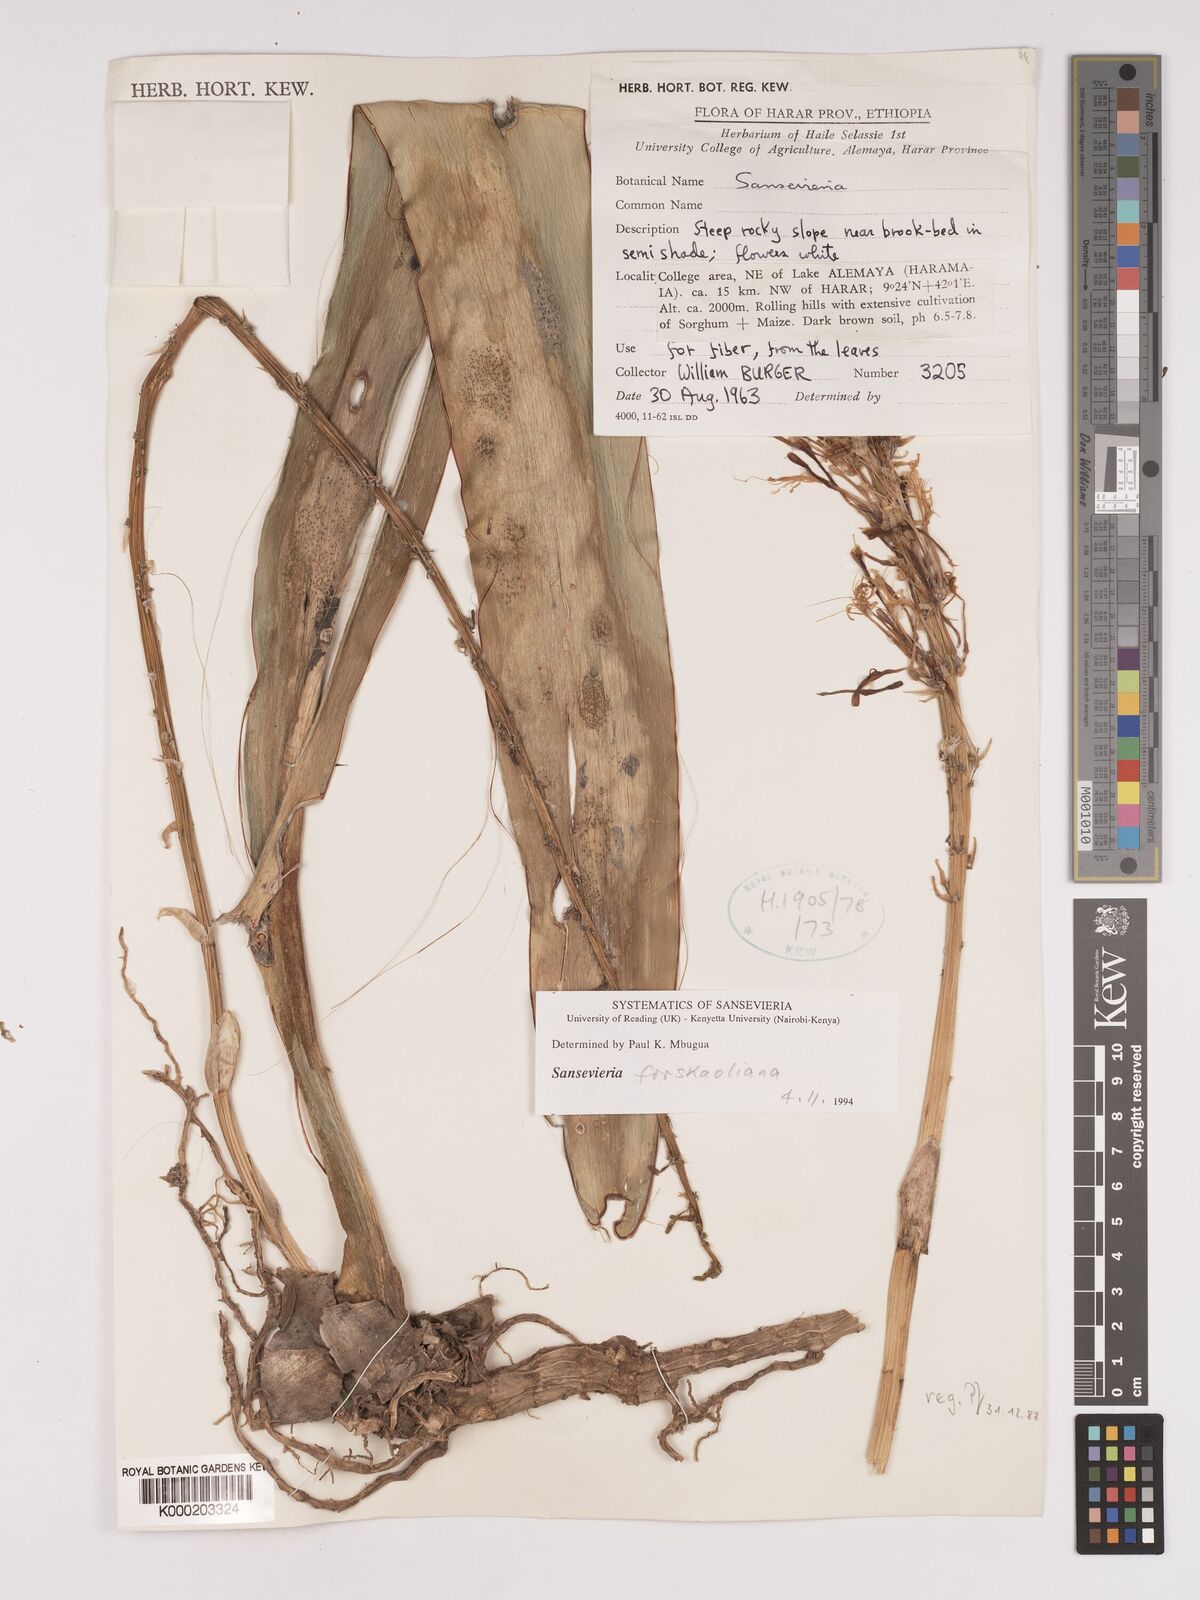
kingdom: Plantae
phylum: Tracheophyta
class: Liliopsida
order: Asparagales
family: Asparagaceae
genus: Dracaena
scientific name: Dracaena
